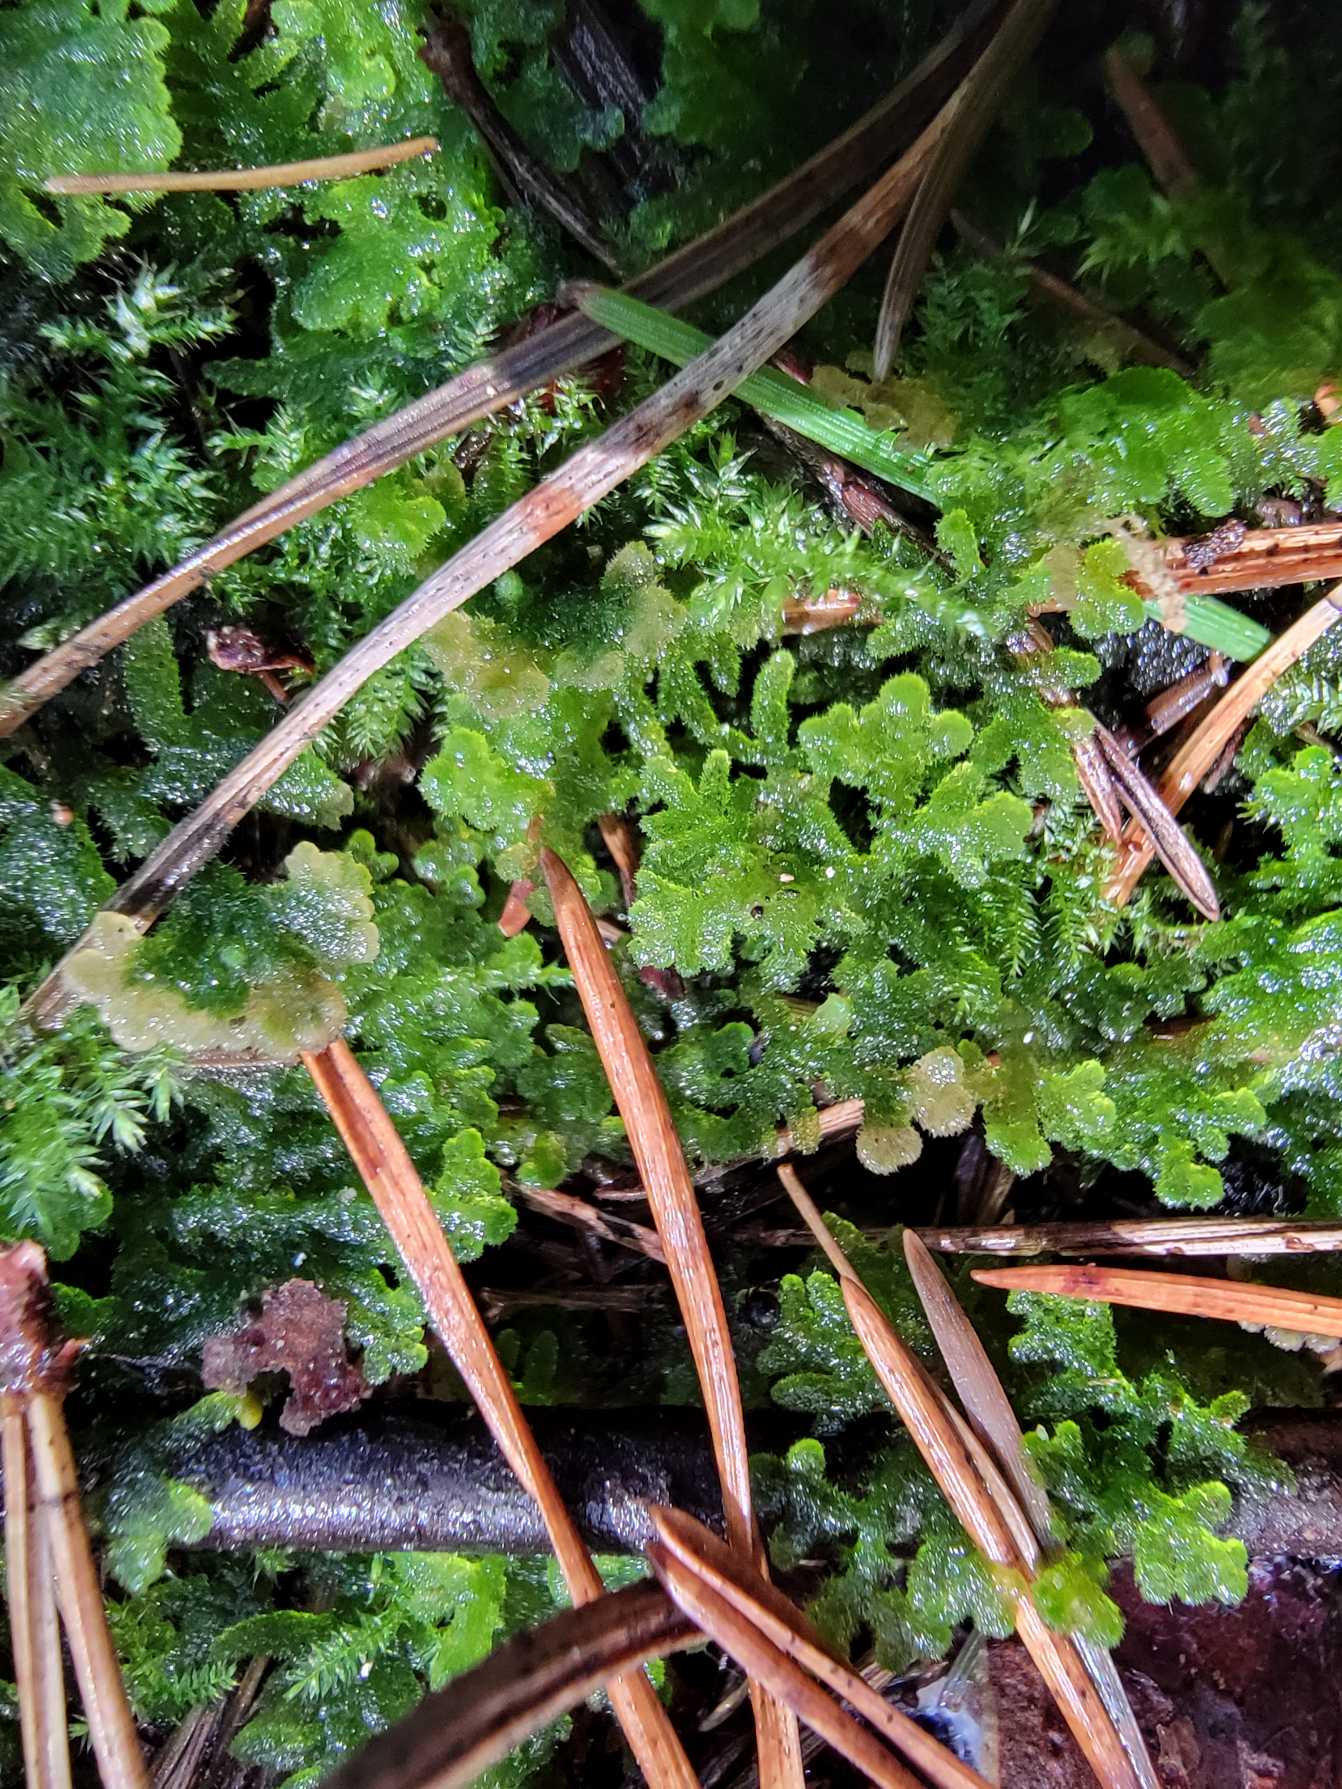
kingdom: Plantae
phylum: Marchantiophyta
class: Jungermanniopsida
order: Jungermanniales
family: Trichocoleaceae
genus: Trichocolea
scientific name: Trichocolea tomentella
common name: Bleg dunmos
